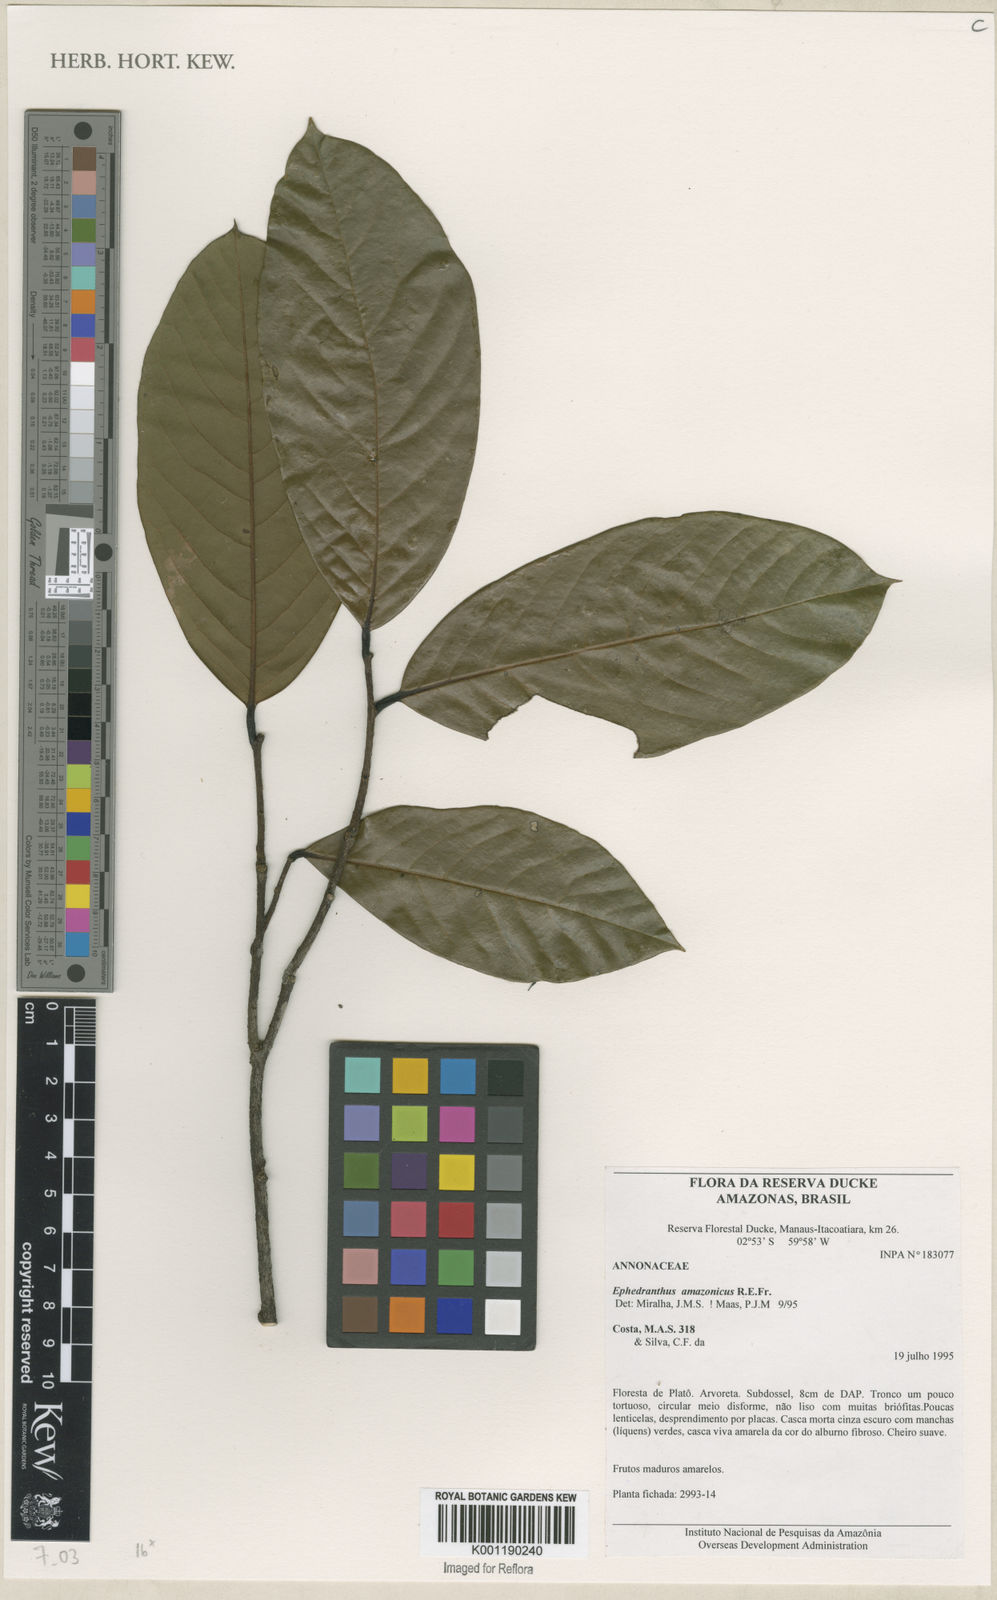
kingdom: Plantae
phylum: Tracheophyta
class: Magnoliopsida
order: Magnoliales
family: Annonaceae
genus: Ephedranthus
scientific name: Ephedranthus amazonicus
